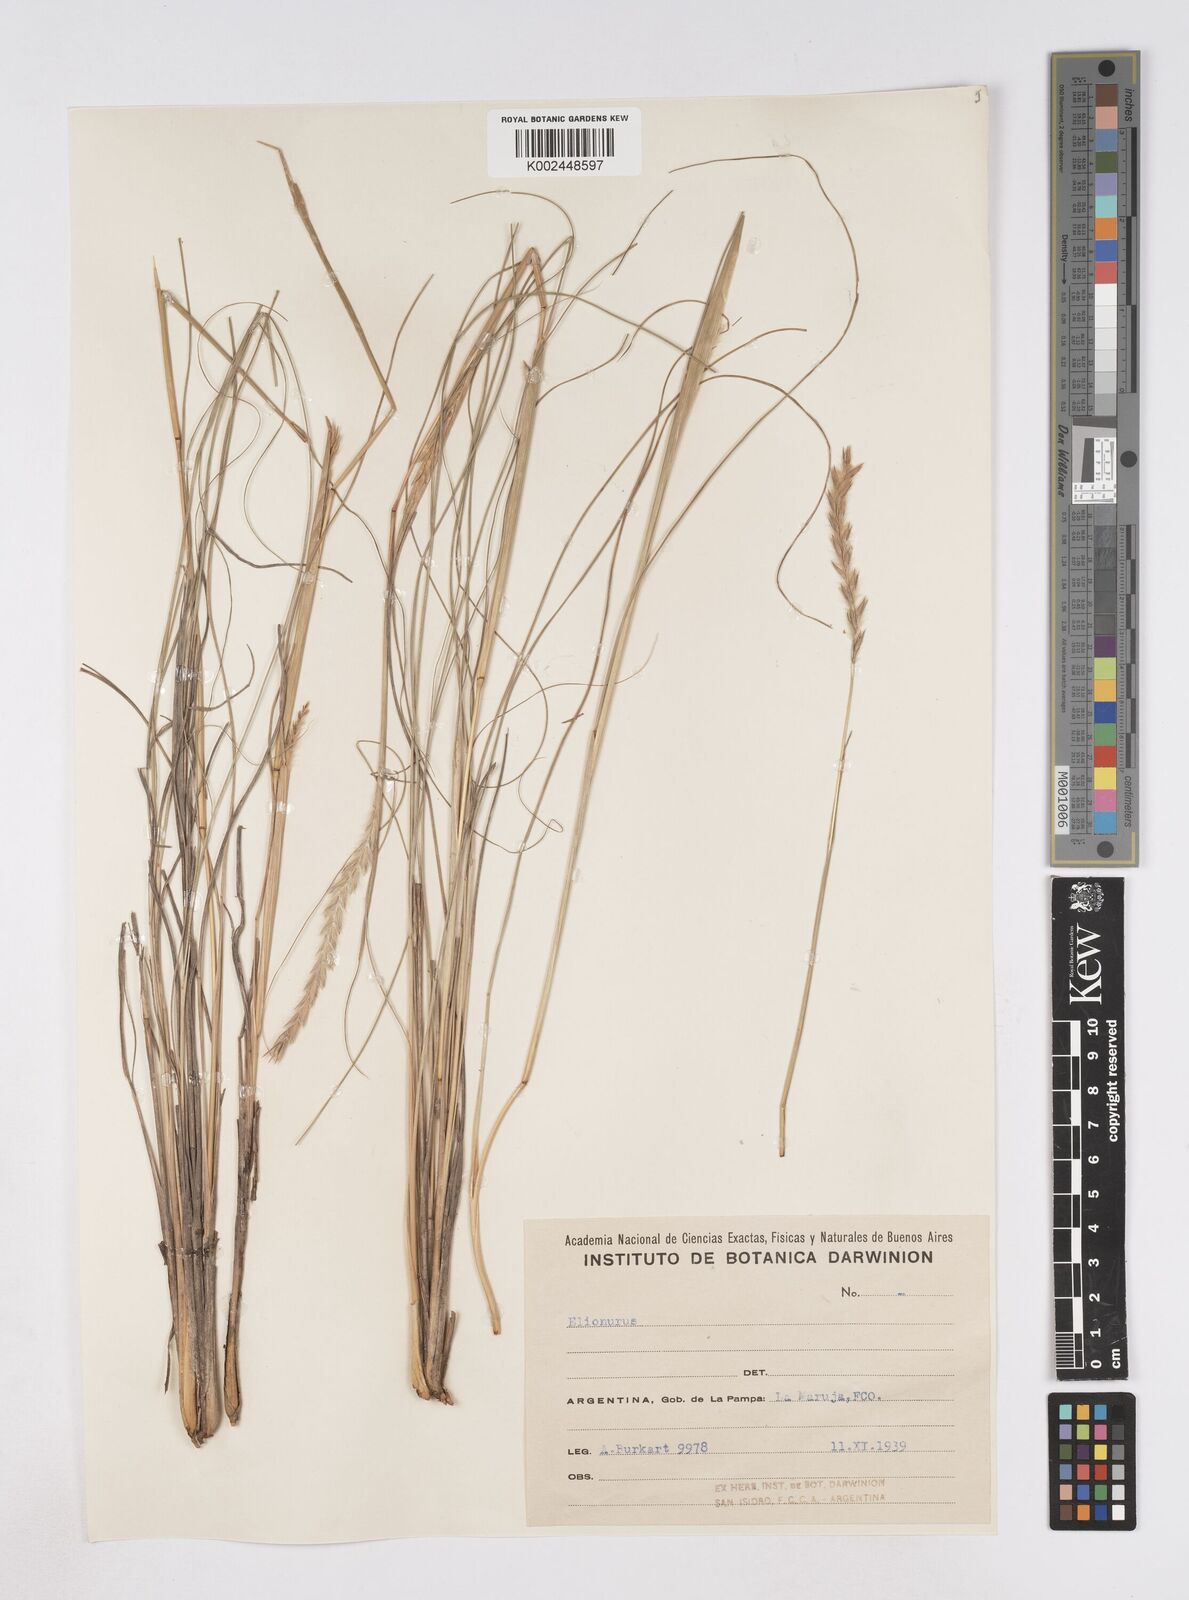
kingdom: Plantae
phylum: Tracheophyta
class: Liliopsida
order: Poales
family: Poaceae
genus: Elionurus
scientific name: Elionurus muticus
